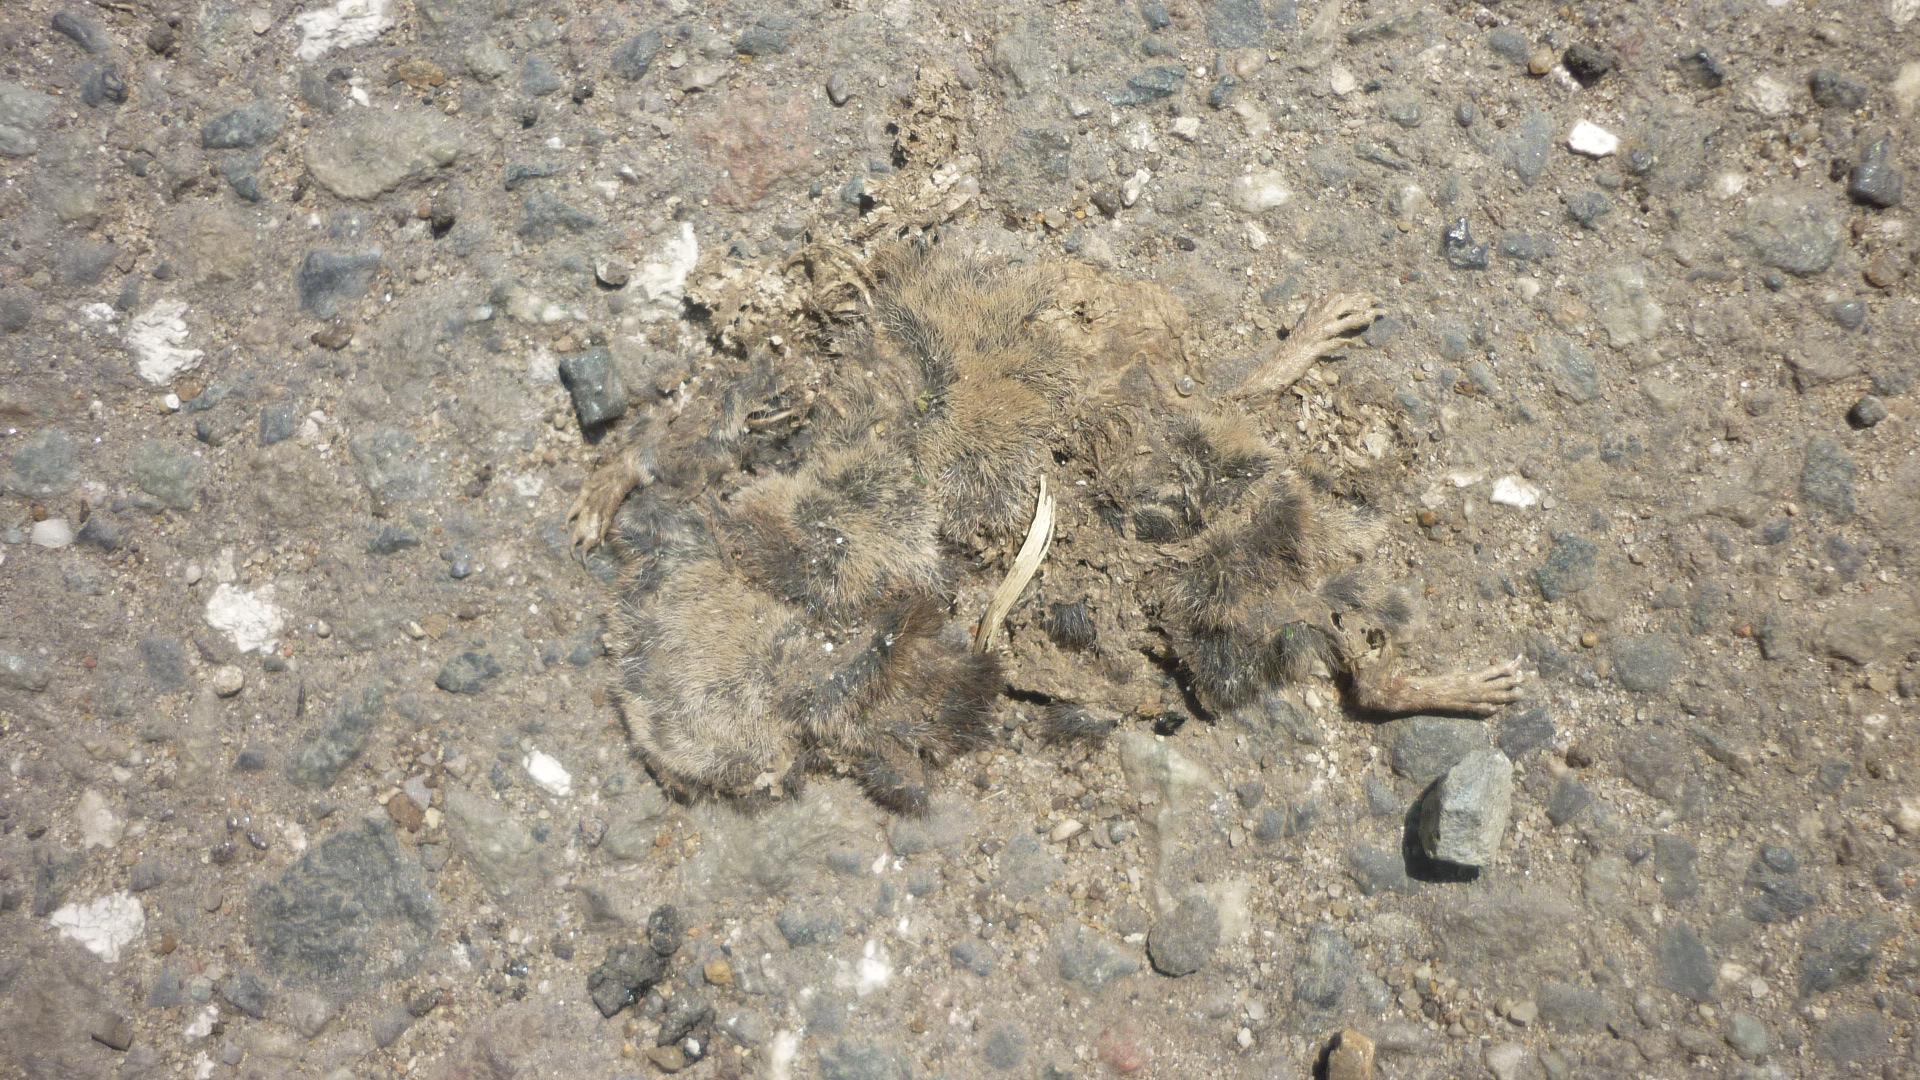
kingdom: Animalia
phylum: Chordata
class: Mammalia
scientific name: Mammalia
